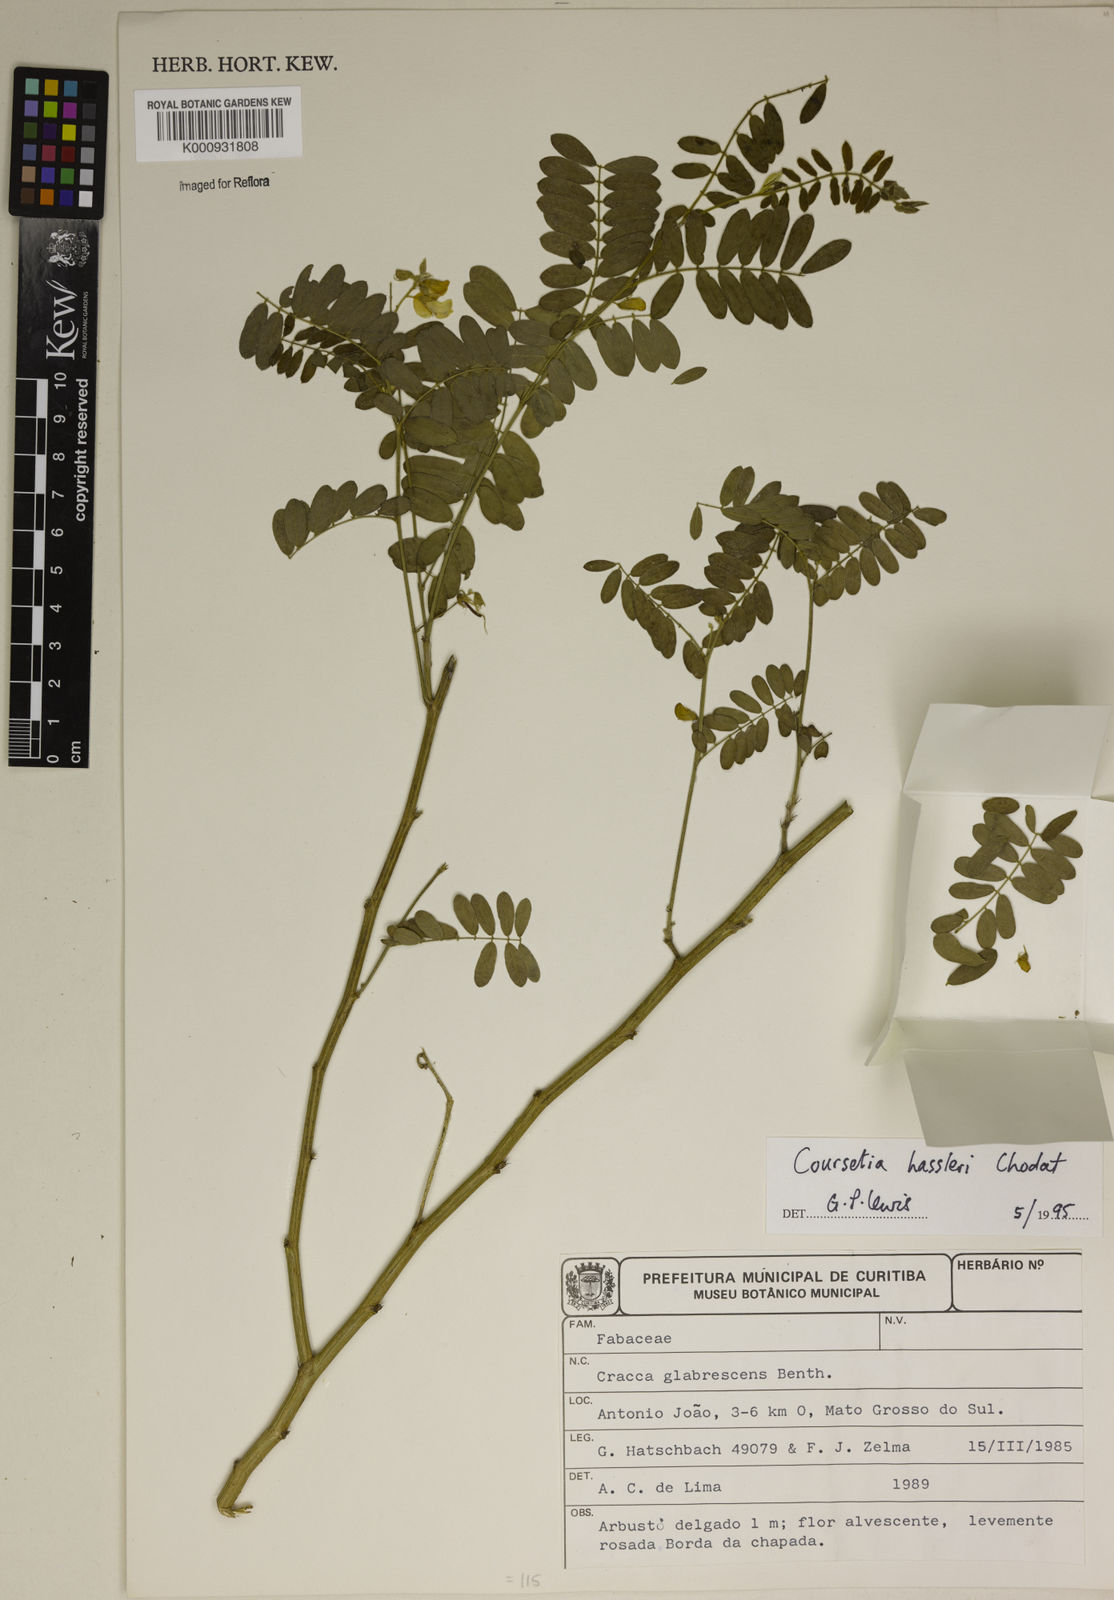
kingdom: Plantae
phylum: Tracheophyta
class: Magnoliopsida
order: Fabales
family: Fabaceae
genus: Coursetia
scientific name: Coursetia hassleri
